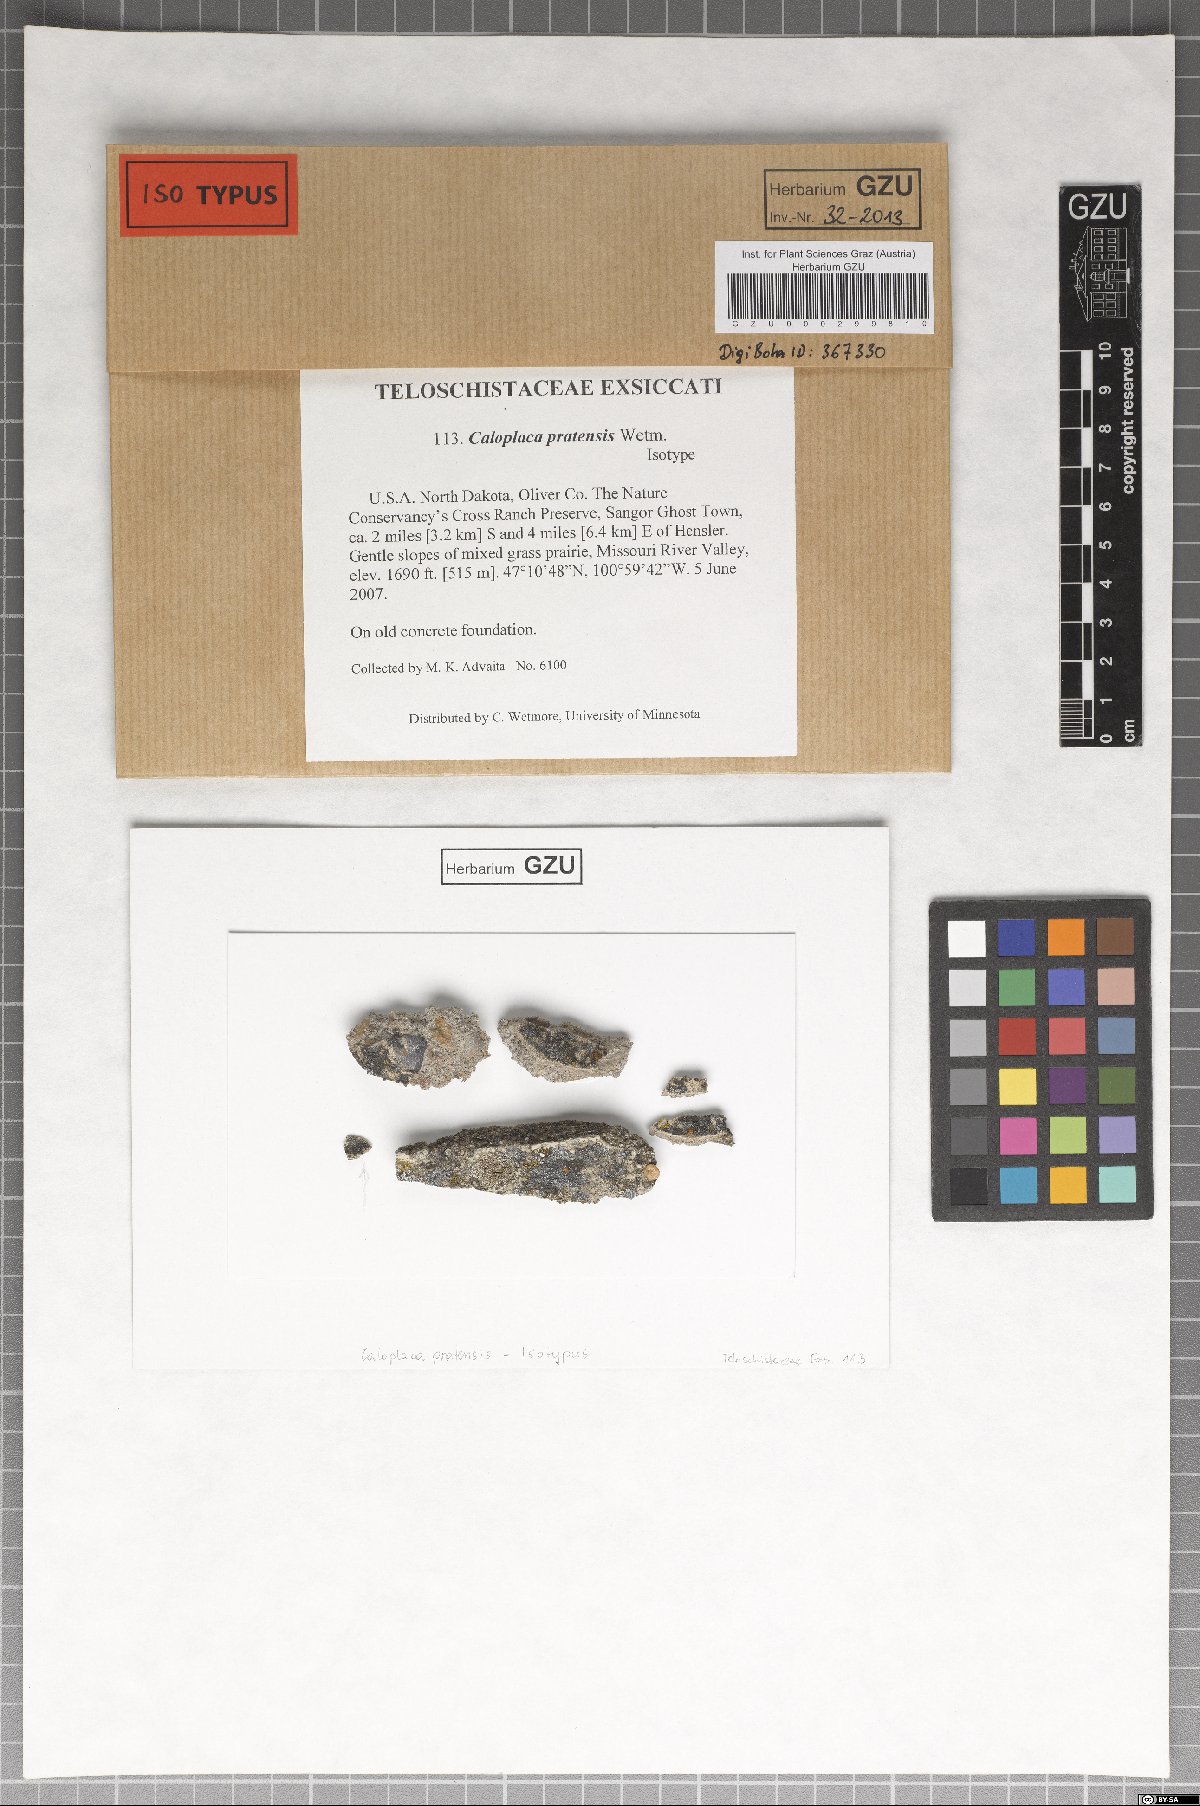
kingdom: Fungi
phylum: Ascomycota
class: Lecanoromycetes
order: Teloschistales
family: Teloschistaceae
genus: Pyrenodesmia
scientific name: Pyrenodesmia pratensis
